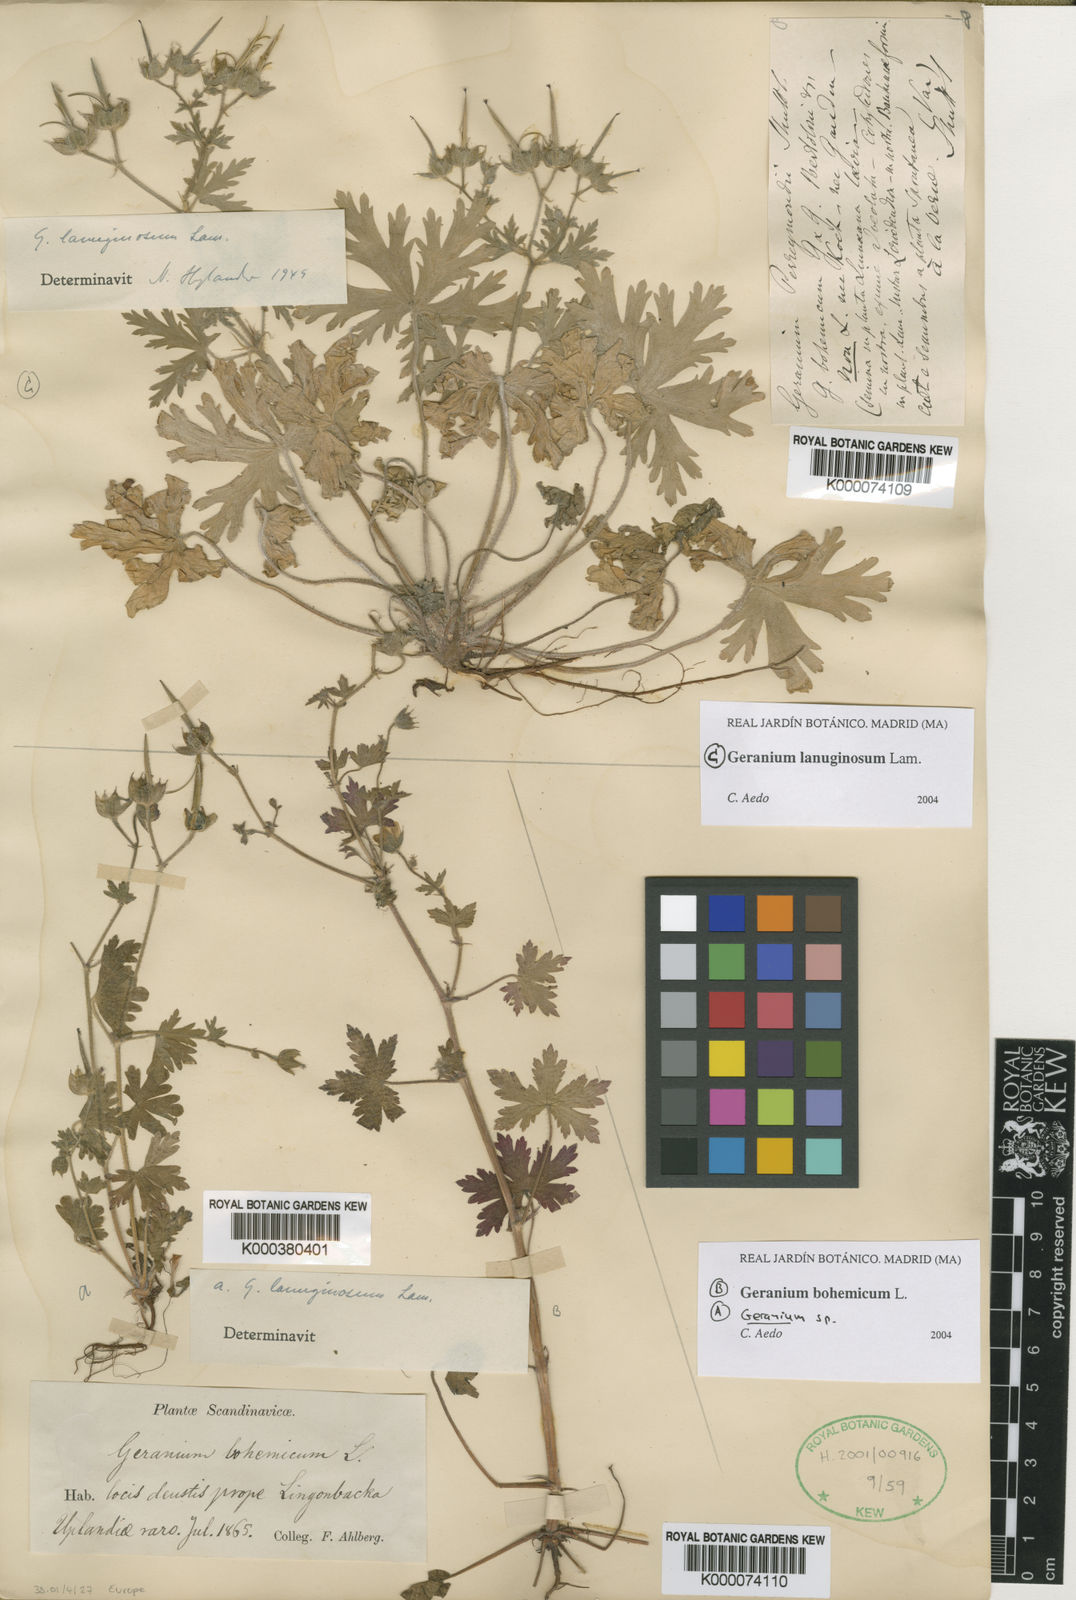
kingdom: Plantae
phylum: Tracheophyta
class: Magnoliopsida
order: Geraniales
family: Geraniaceae
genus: Geranium
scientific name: Geranium lanuginosum
